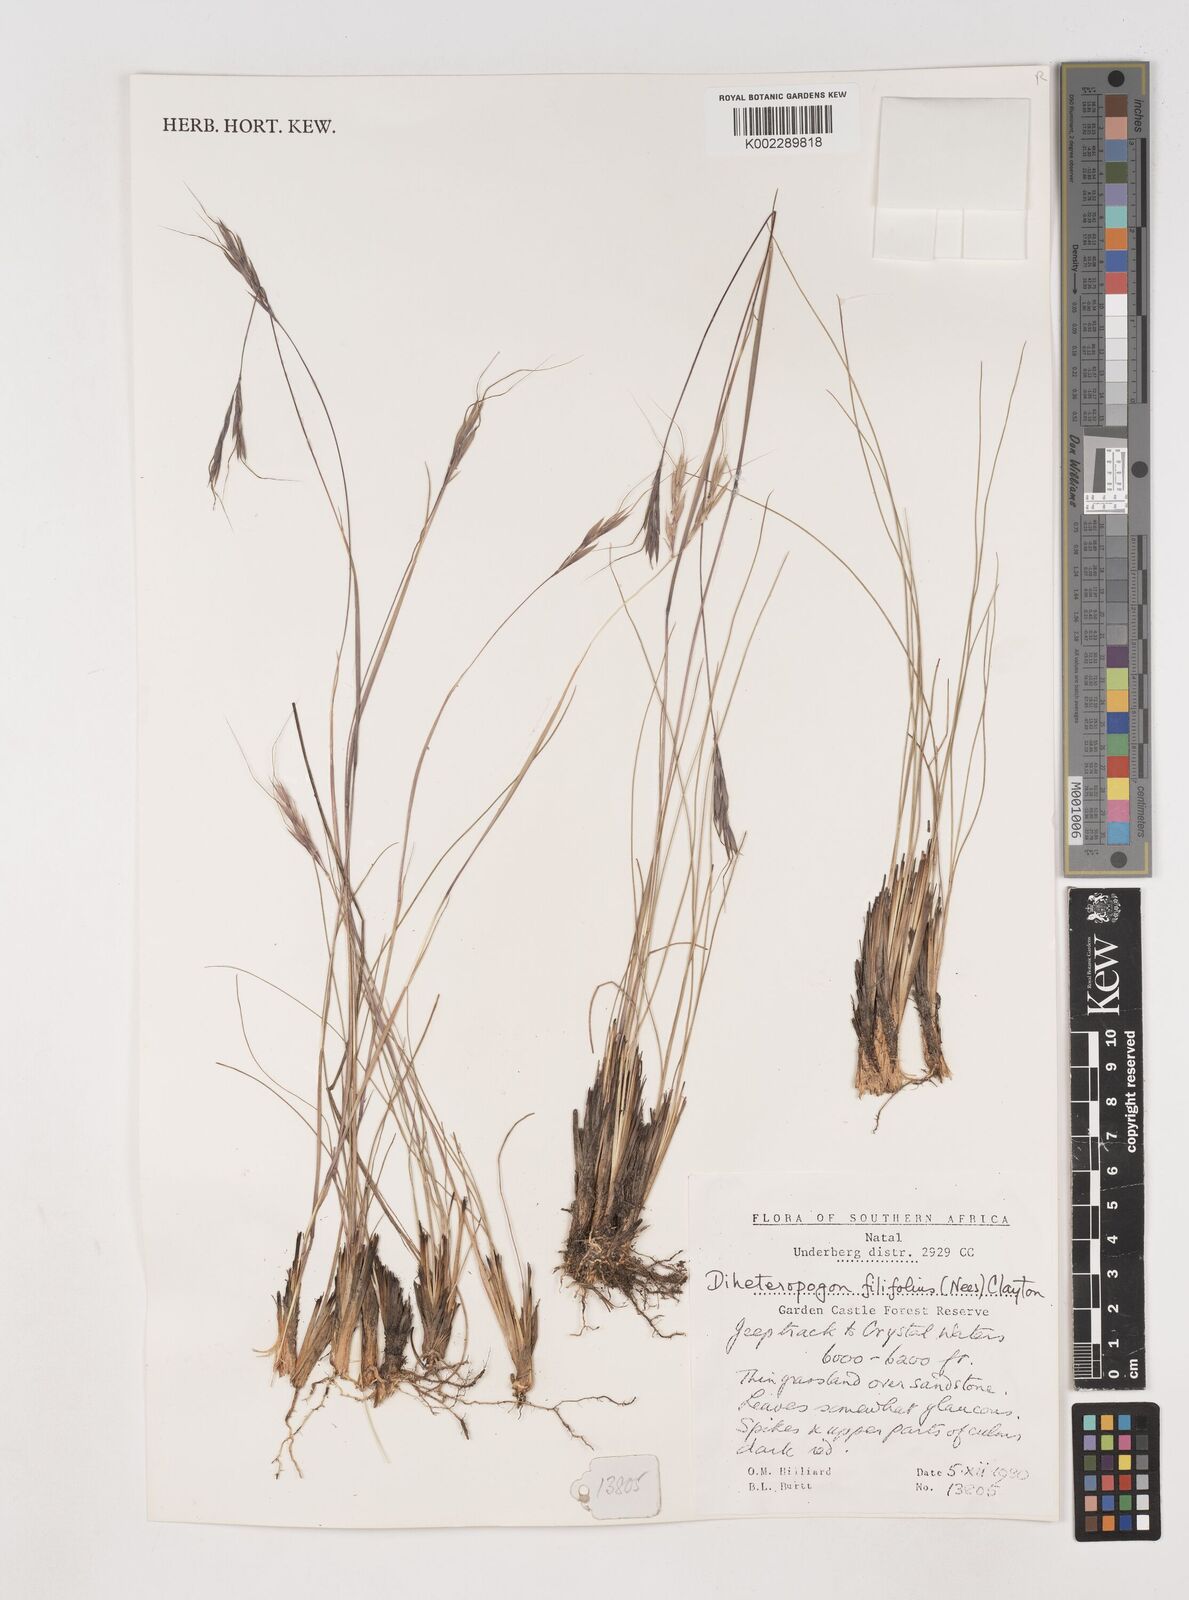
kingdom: Plantae
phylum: Tracheophyta
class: Liliopsida
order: Poales
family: Poaceae
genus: Diheteropogon
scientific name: Diheteropogon filifolius
